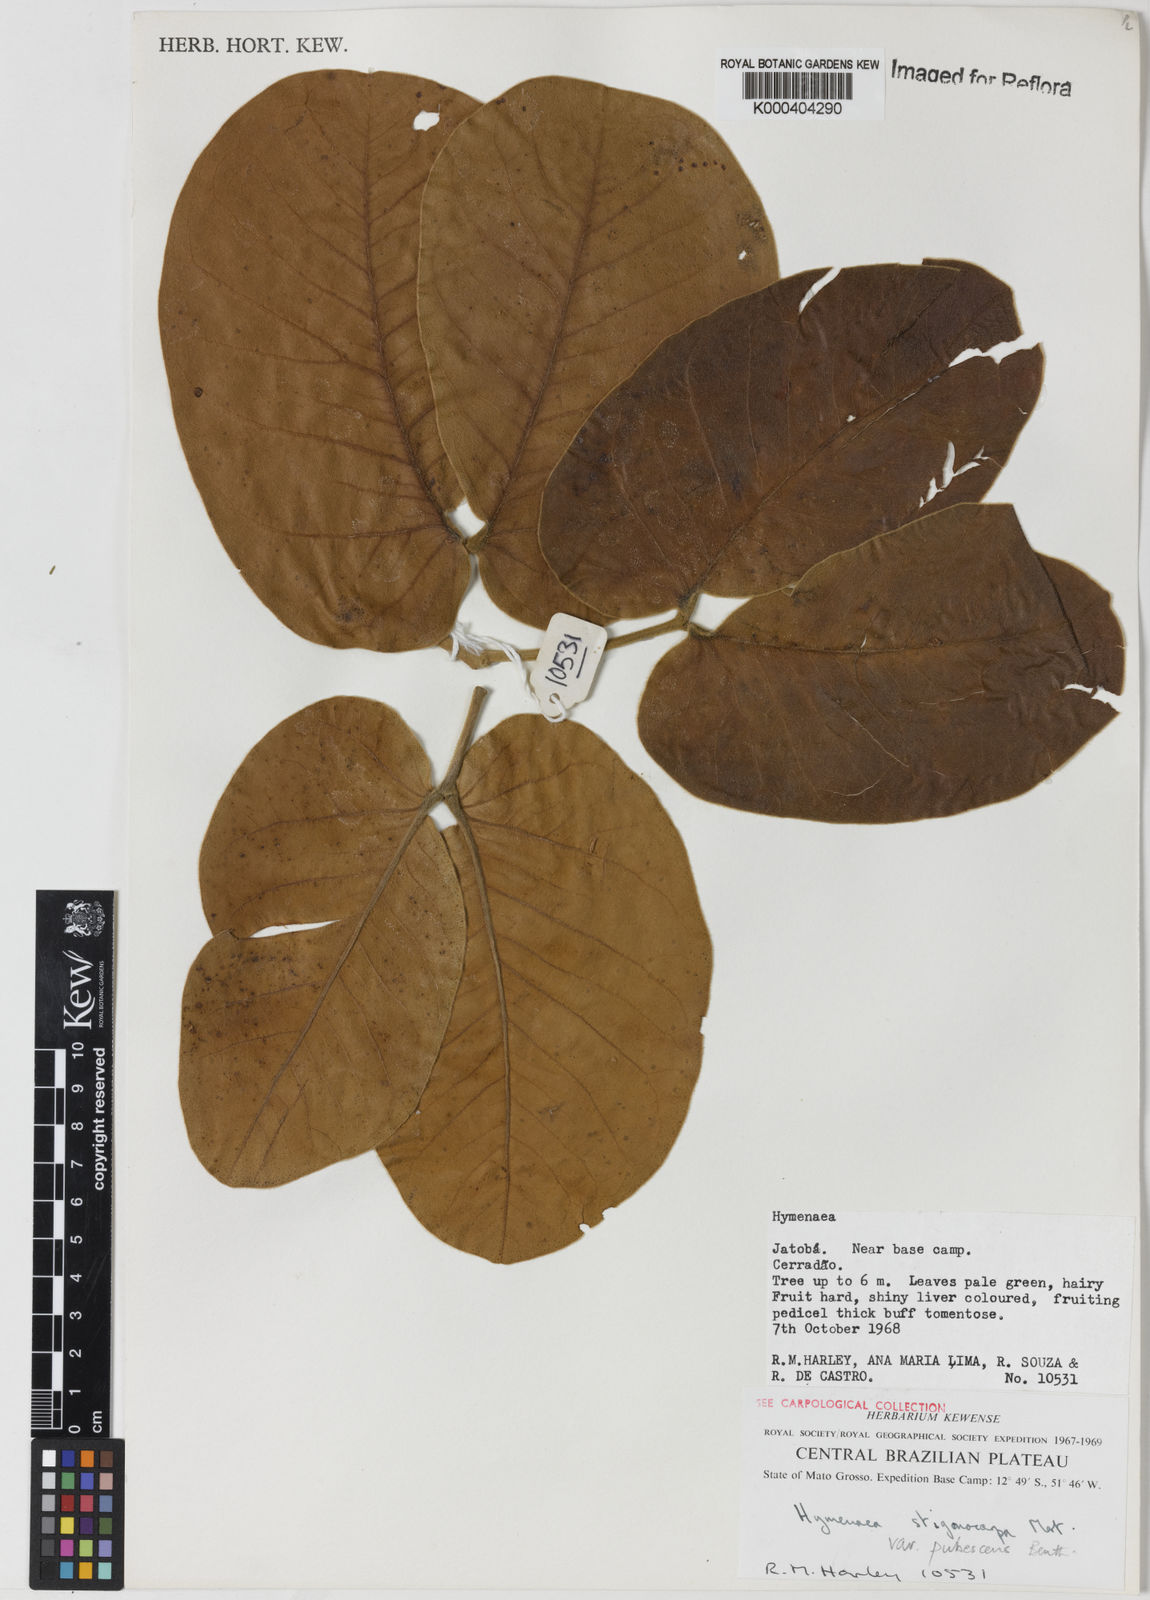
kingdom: Plantae
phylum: Tracheophyta
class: Magnoliopsida
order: Fabales
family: Fabaceae
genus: Hymenaea
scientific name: Hymenaea stigonocarpa
